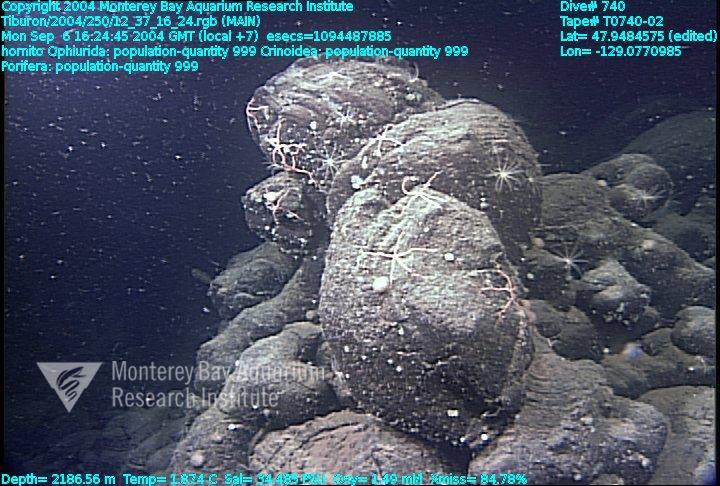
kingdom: Animalia
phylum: Porifera
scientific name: Porifera
